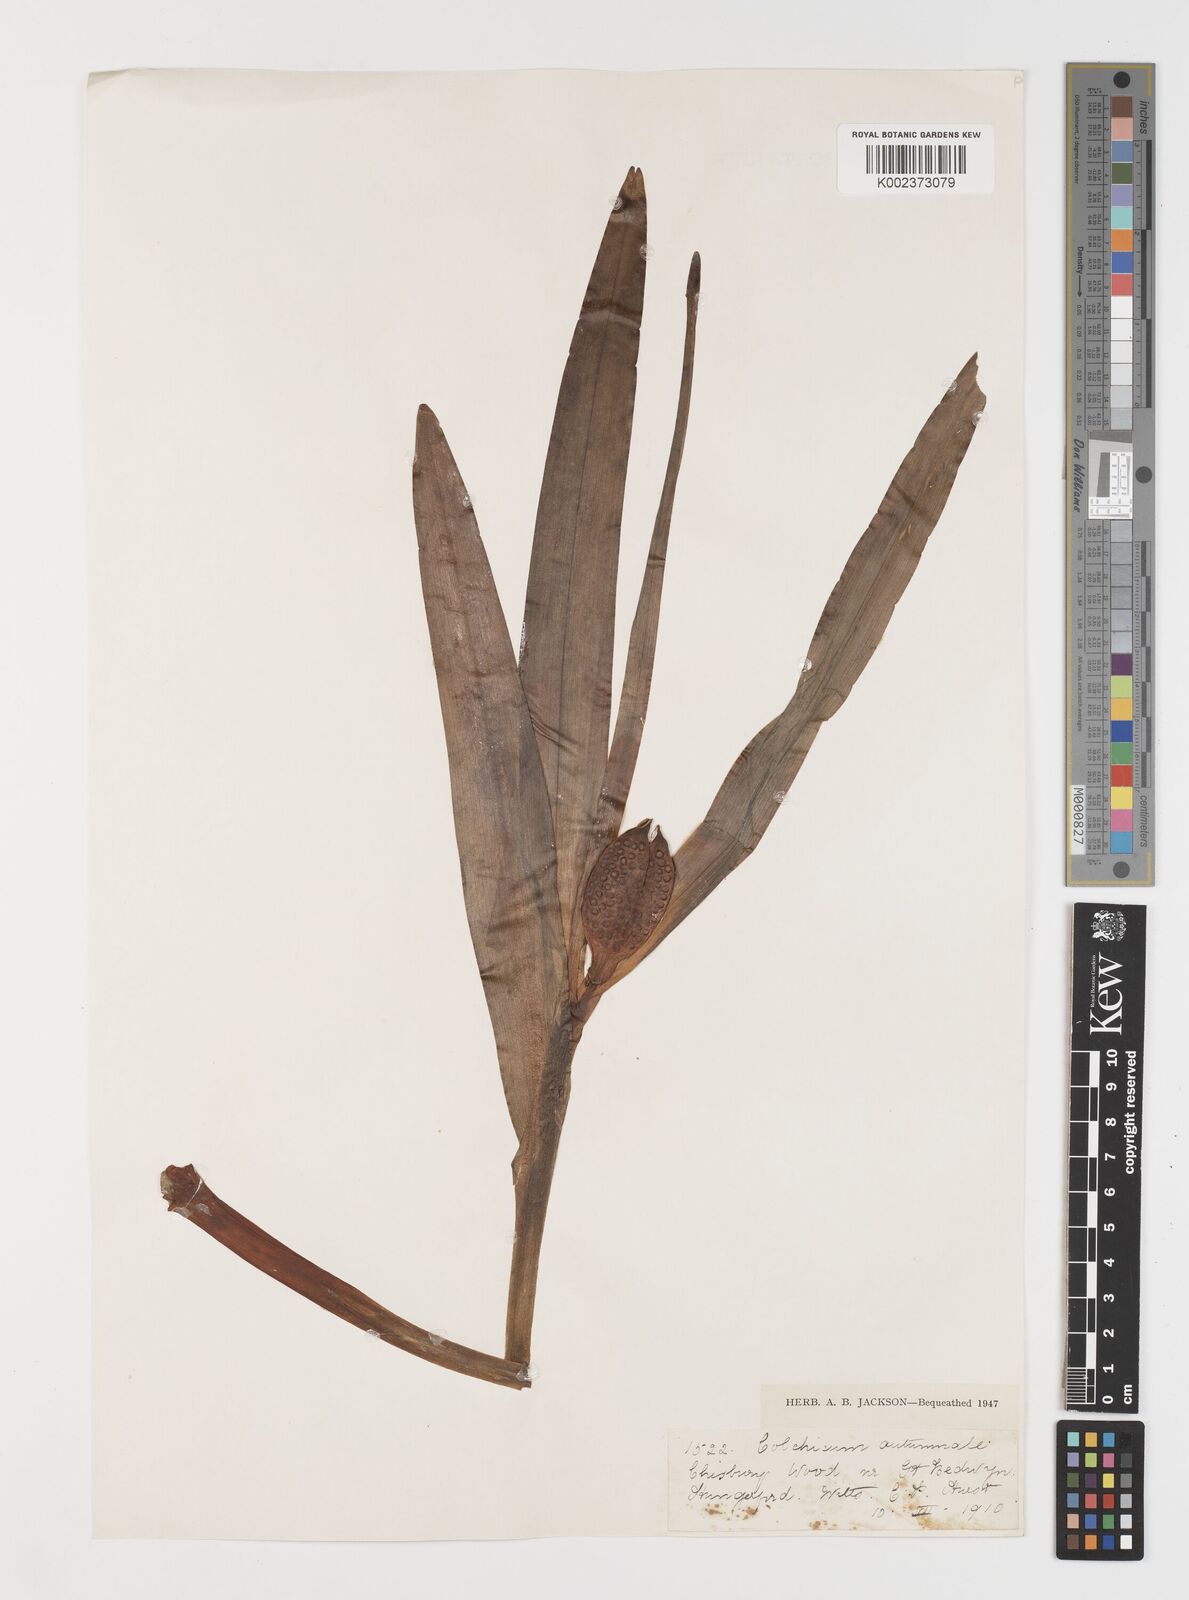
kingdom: Plantae
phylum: Tracheophyta
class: Liliopsida
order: Liliales
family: Colchicaceae
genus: Colchicum
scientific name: Colchicum autumnale
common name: Autumn crocus
